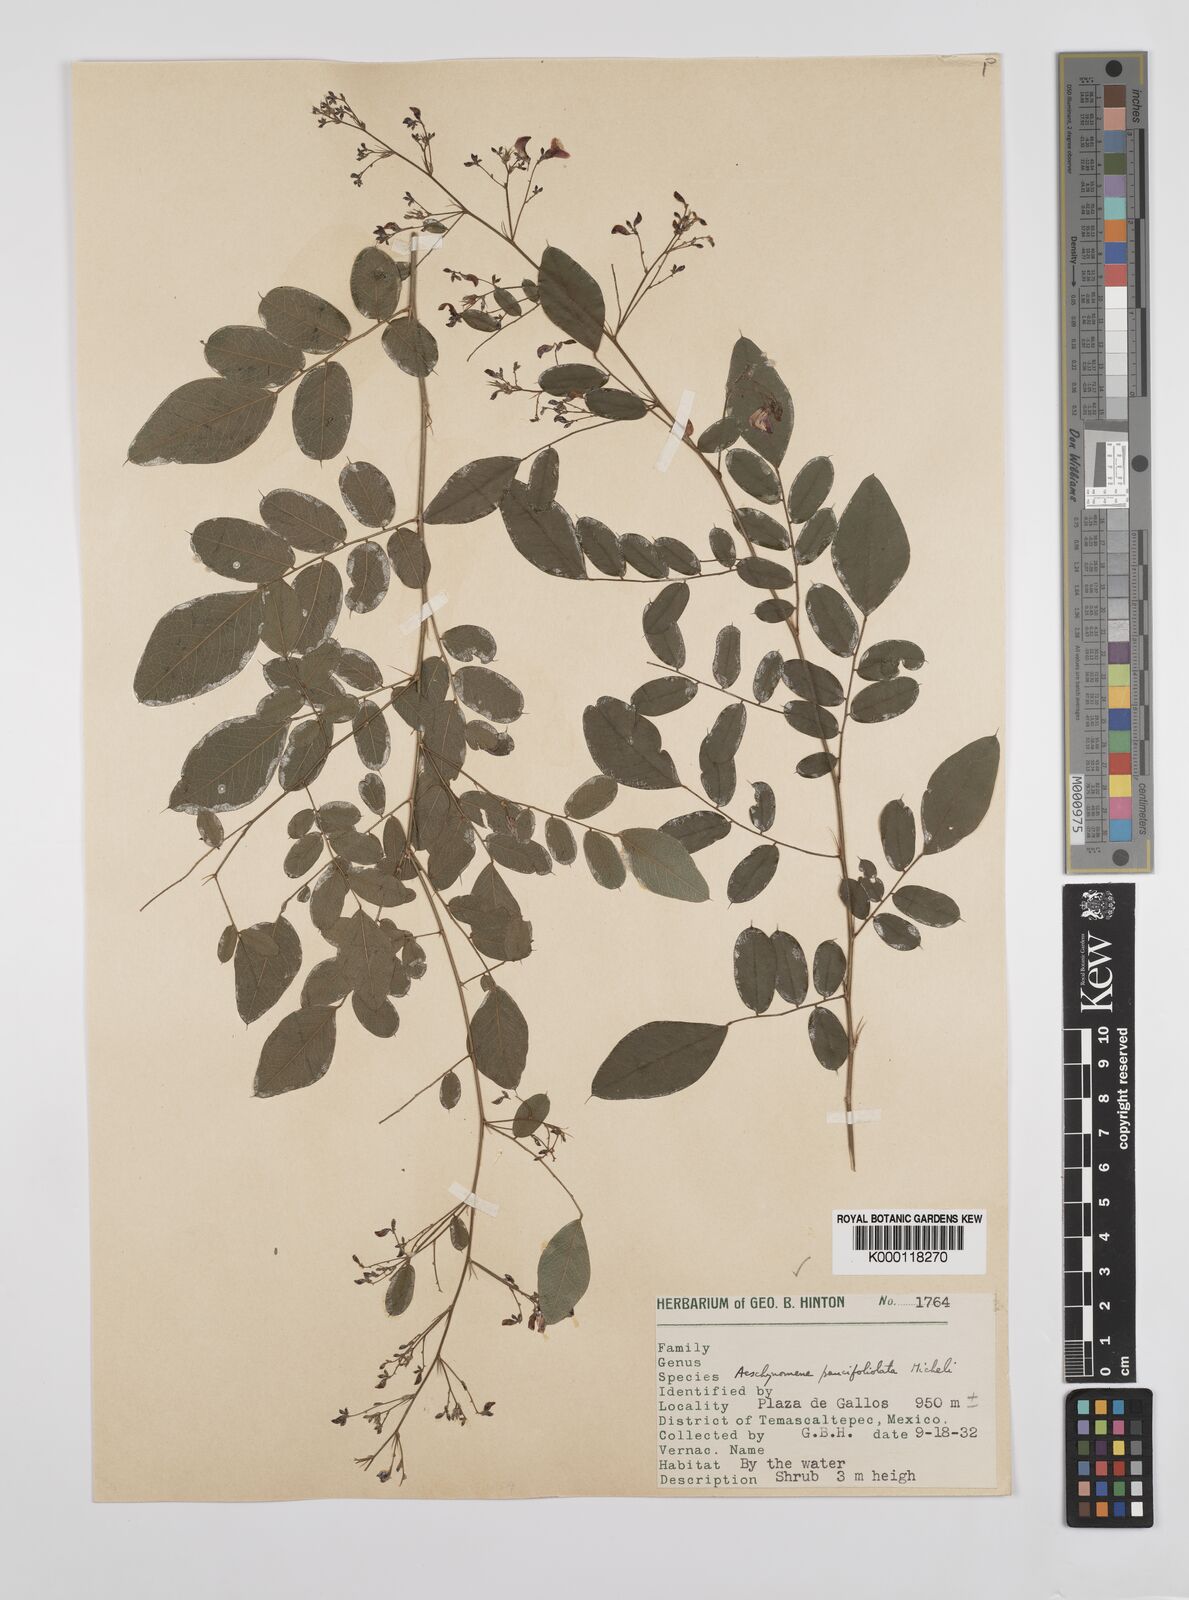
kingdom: Plantae
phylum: Tracheophyta
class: Magnoliopsida
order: Fabales
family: Fabaceae
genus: Ctenodon
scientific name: Ctenodon paucifoliolatus
